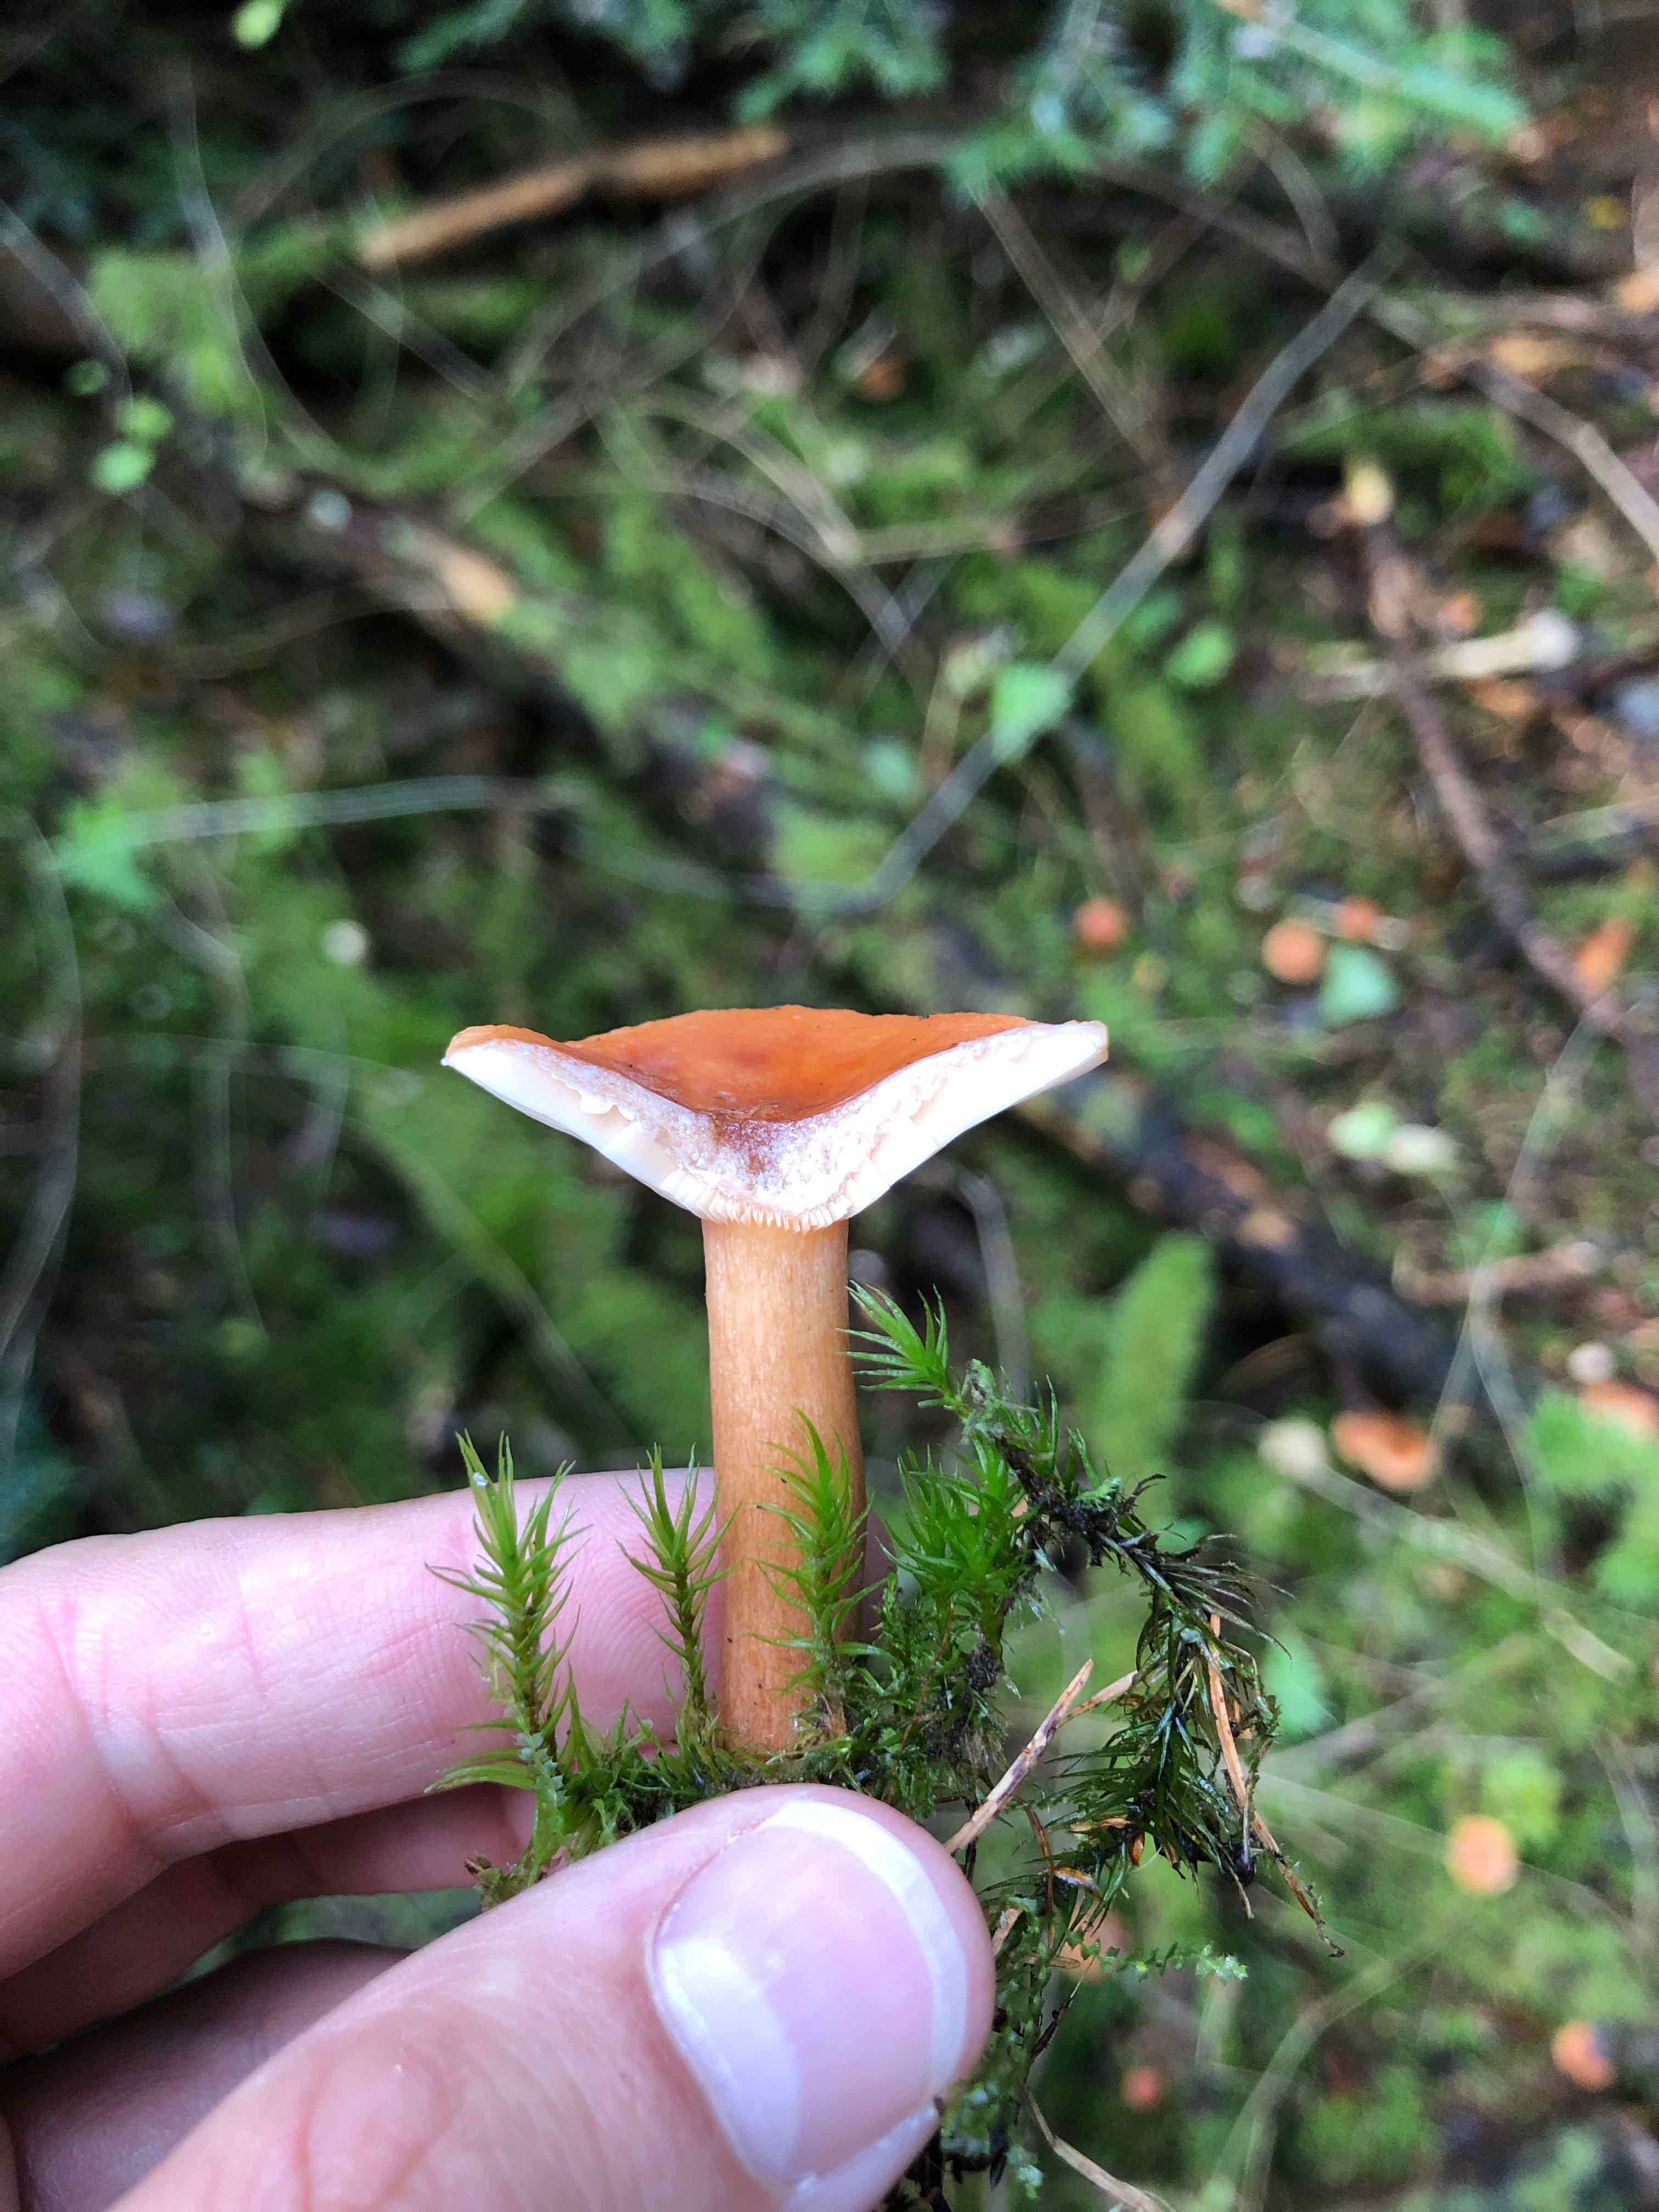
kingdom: Fungi
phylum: Basidiomycota
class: Agaricomycetes
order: Russulales
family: Russulaceae
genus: Lactarius
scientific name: Lactarius
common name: mælkehat
